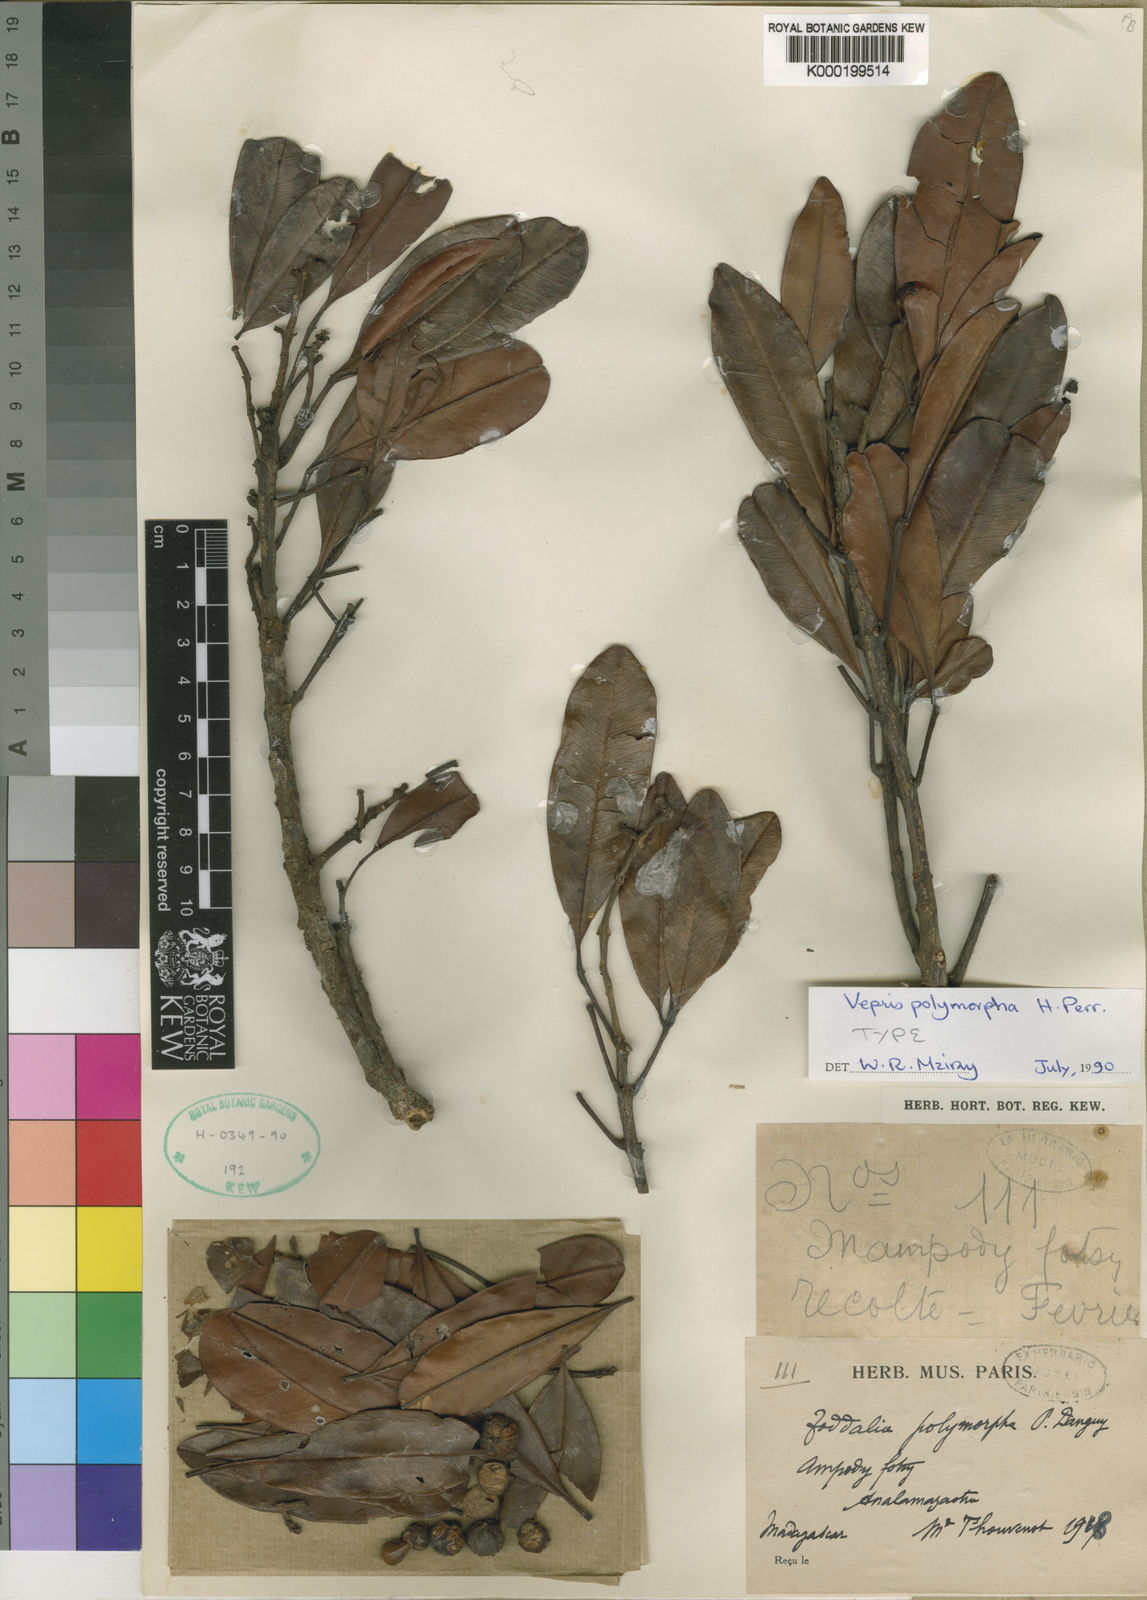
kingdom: Plantae
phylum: Tracheophyta
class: Magnoliopsida
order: Sapindales
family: Rutaceae
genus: Vepris
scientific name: Vepris polymorpha
